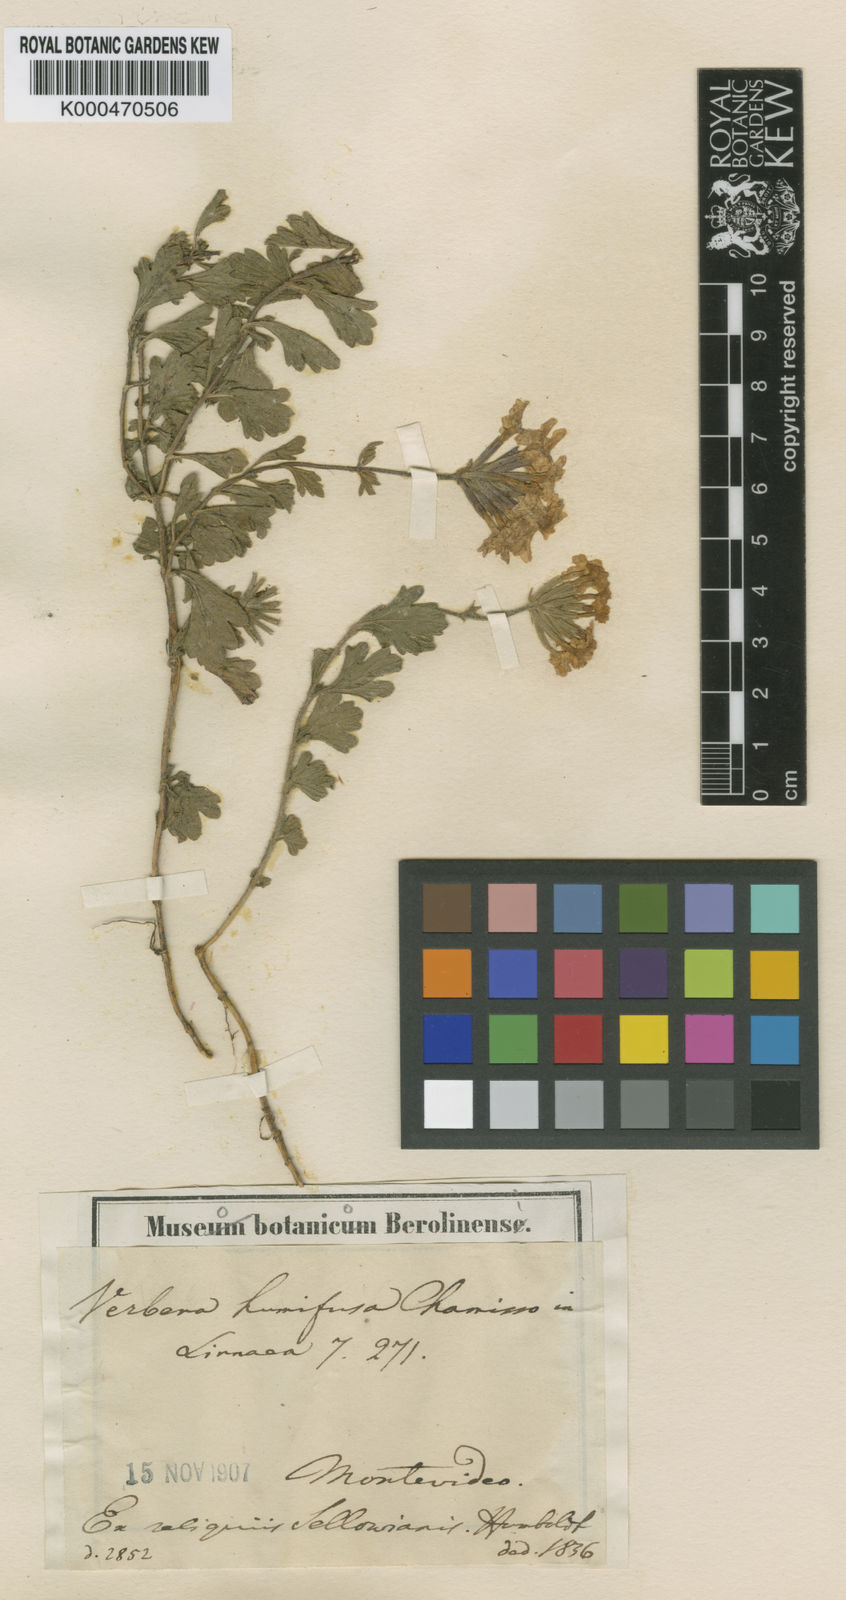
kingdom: Plantae
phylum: Tracheophyta
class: Magnoliopsida
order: Lamiales
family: Verbenaceae
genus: Verbena
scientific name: Verbena humifusa
